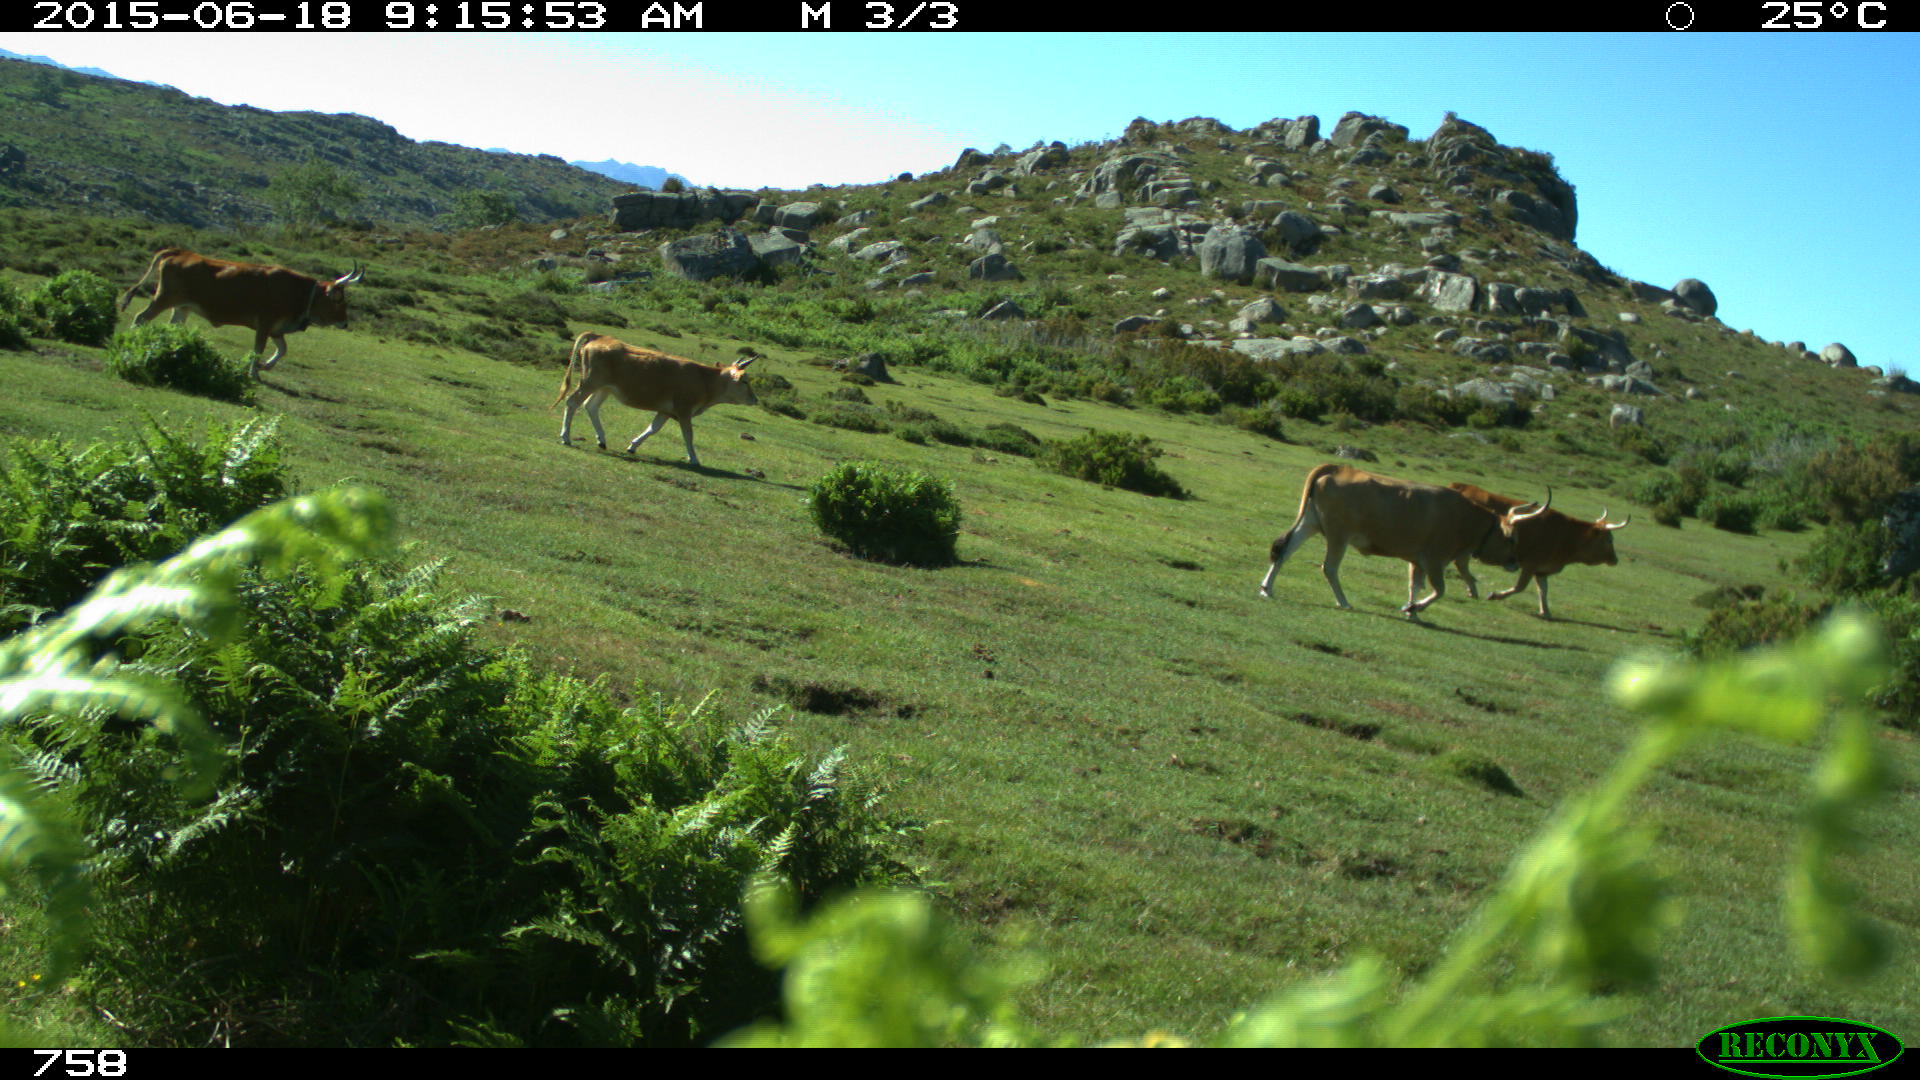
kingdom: Animalia
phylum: Chordata
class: Mammalia
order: Artiodactyla
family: Bovidae
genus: Bos
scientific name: Bos taurus
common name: Domesticated cattle
